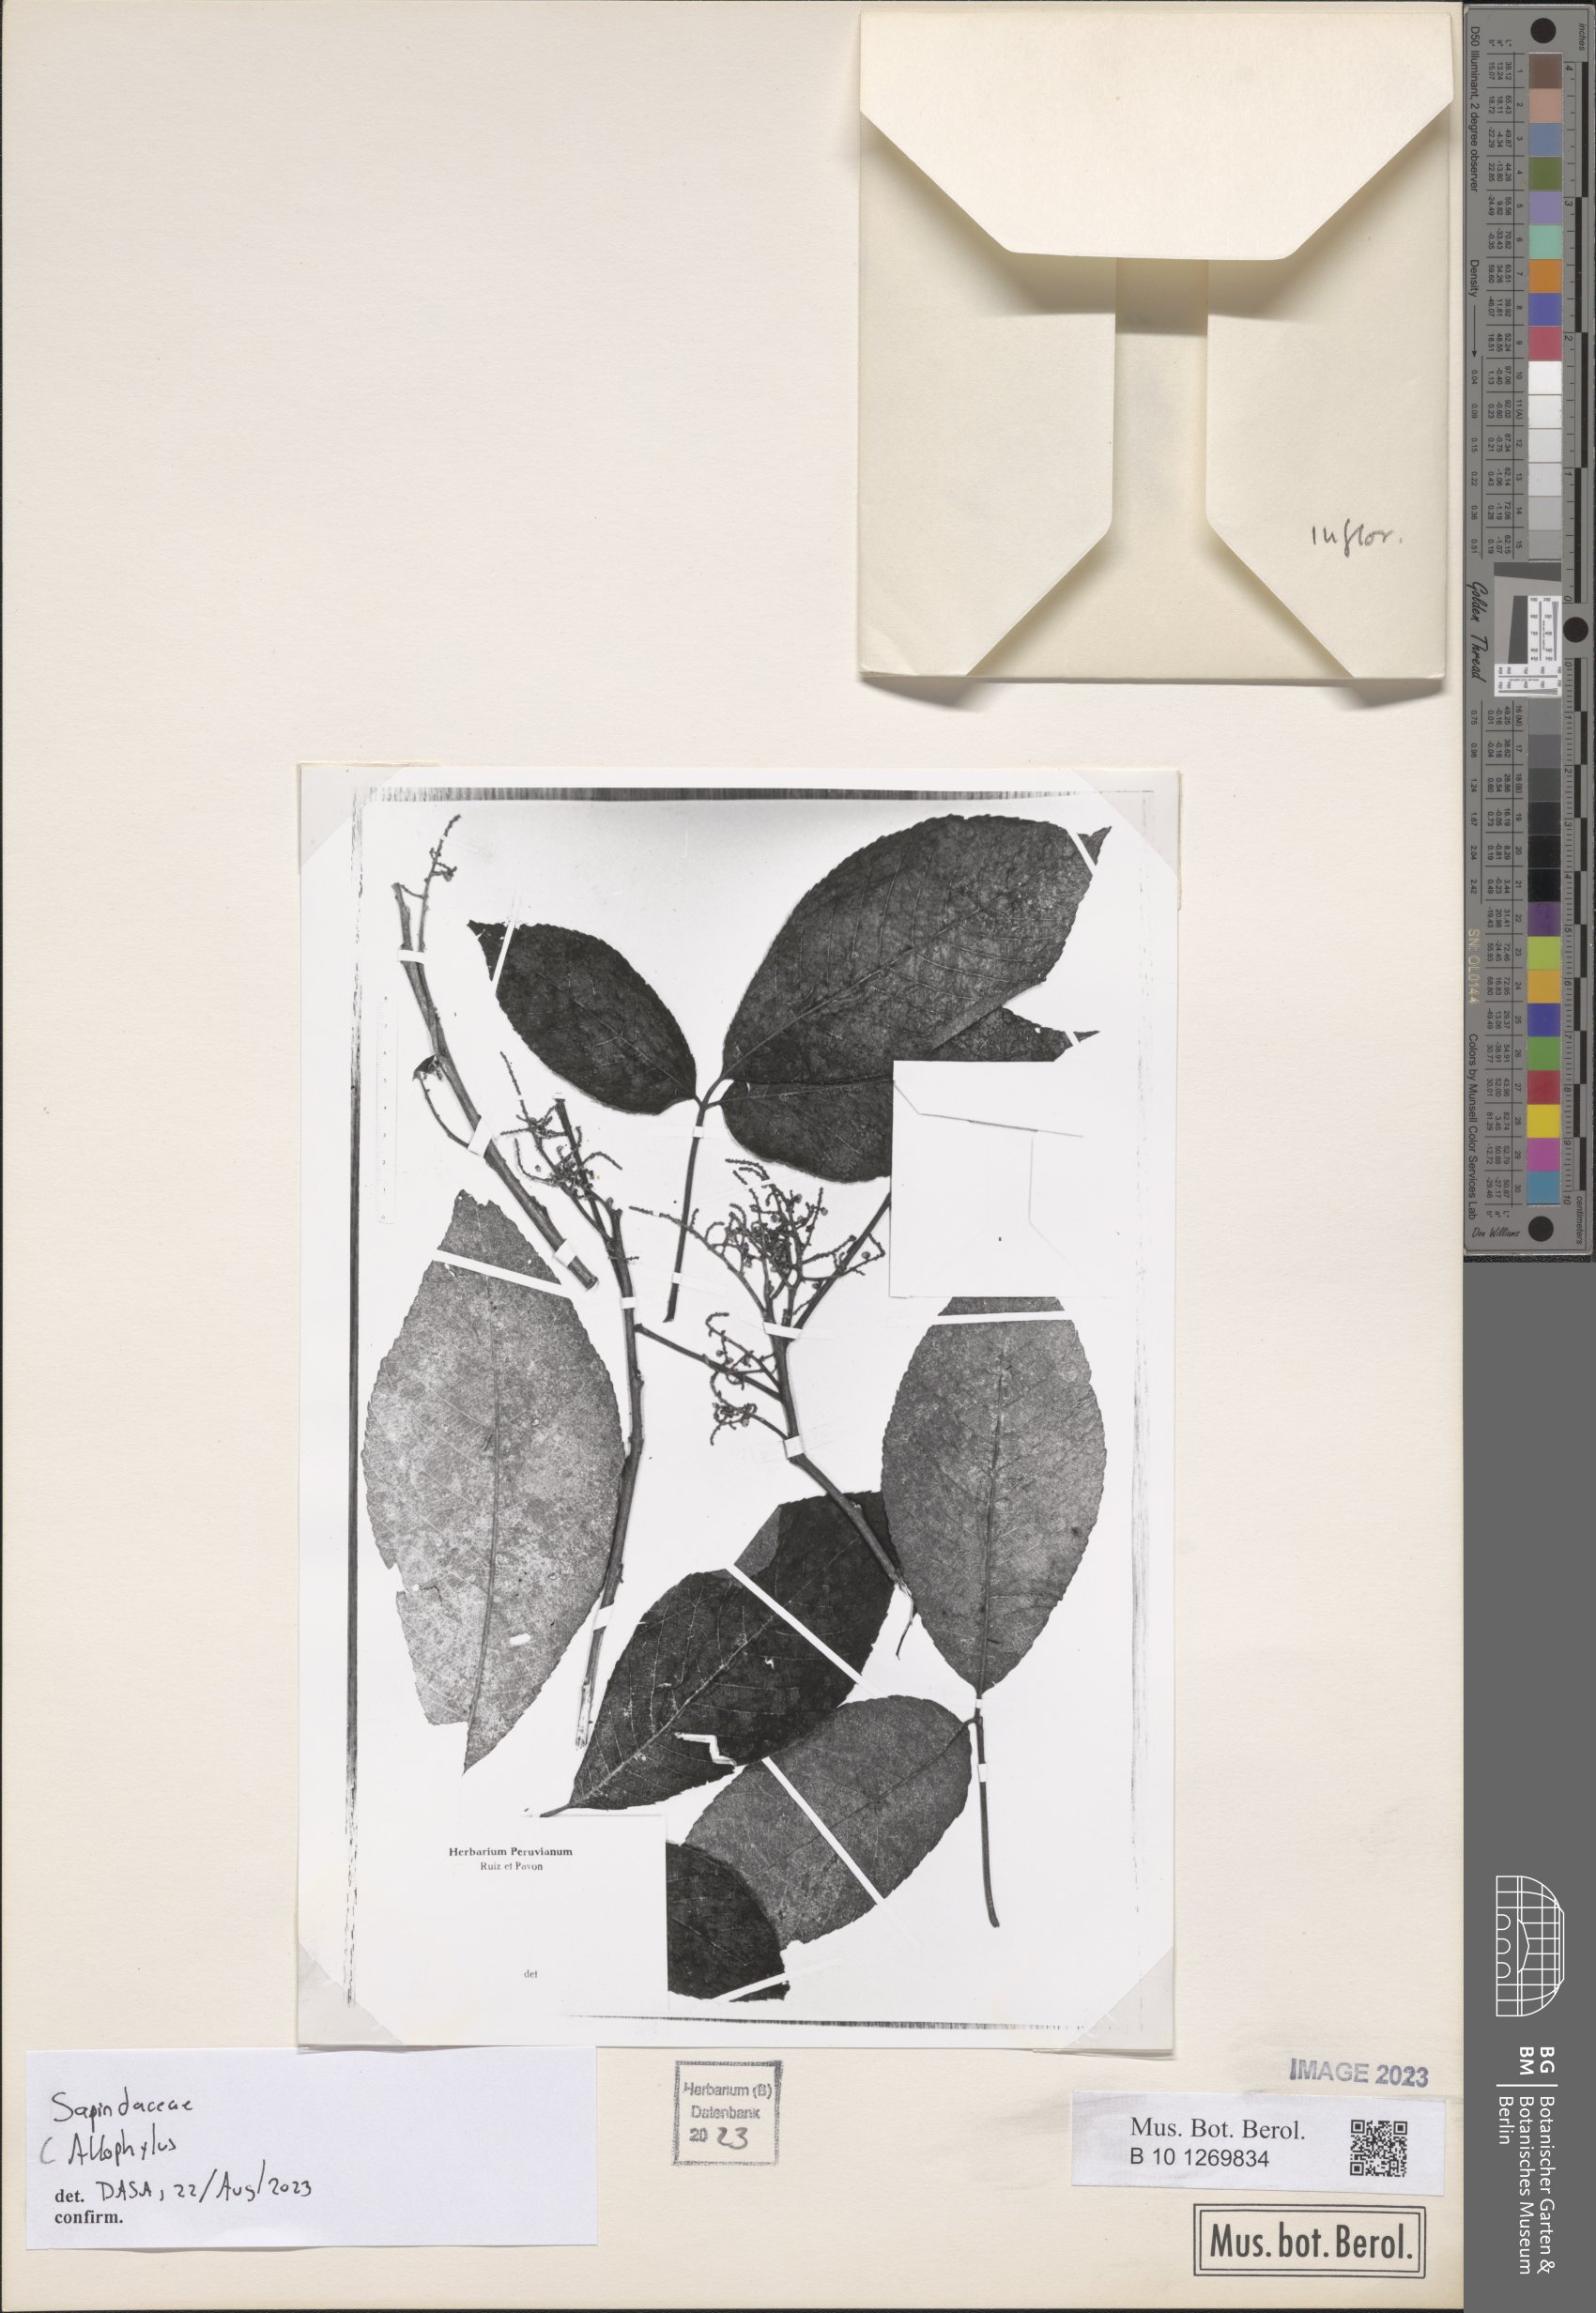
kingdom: Plantae
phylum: Tracheophyta
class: Magnoliopsida
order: Sapindales
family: Sapindaceae
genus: Allophyllus
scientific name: Allophyllus
